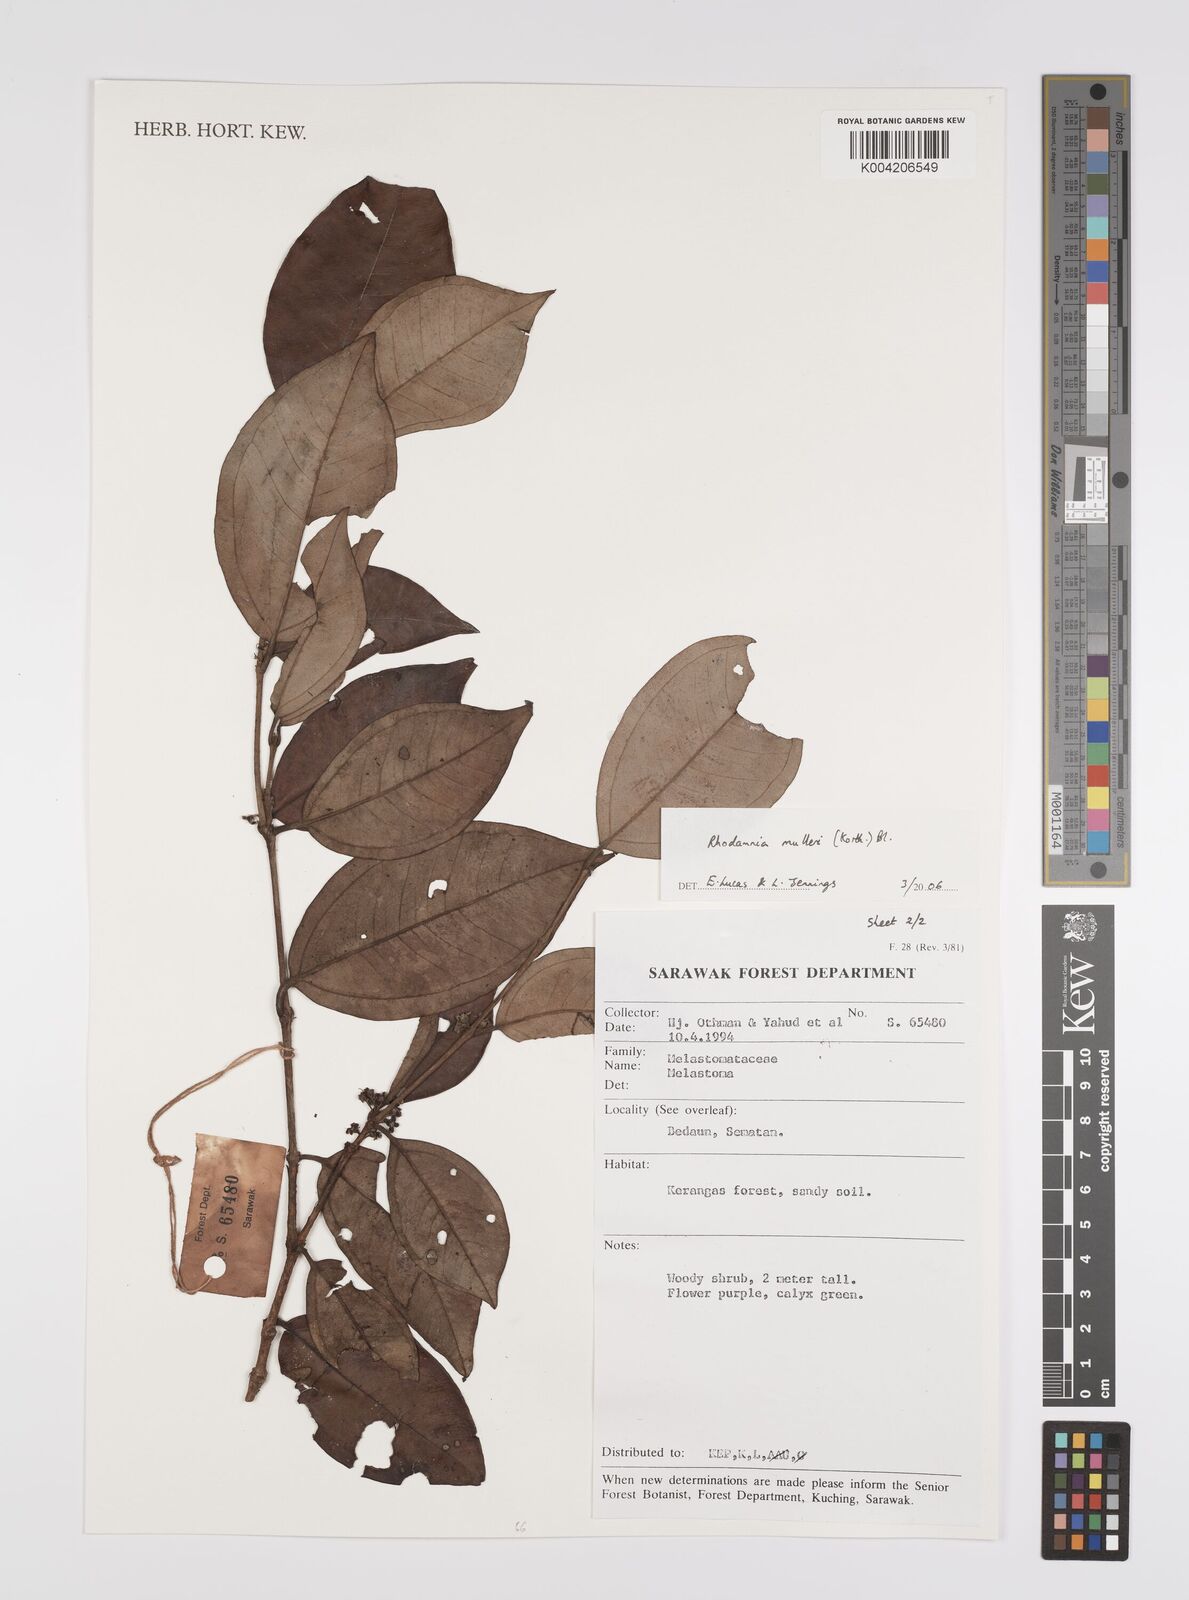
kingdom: Plantae
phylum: Tracheophyta
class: Magnoliopsida
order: Myrtales
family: Myrtaceae
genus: Rhodamnia
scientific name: Rhodamnia mulleri
